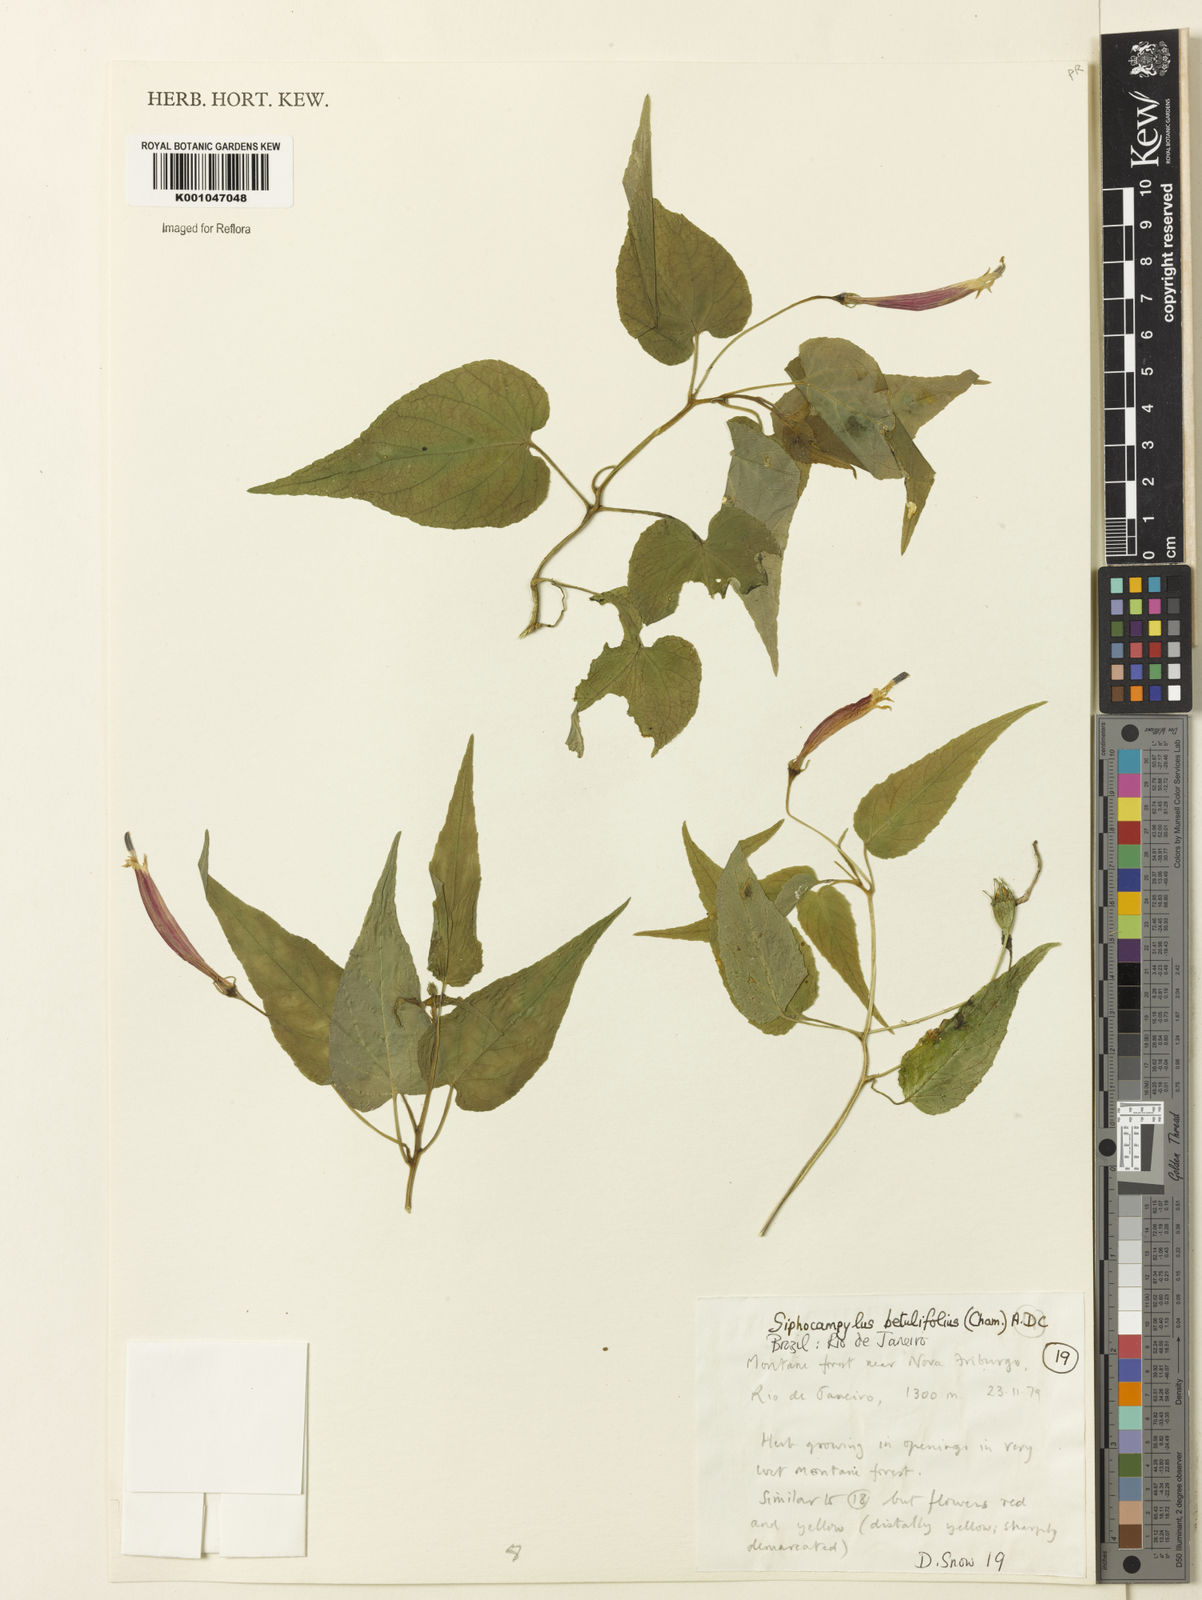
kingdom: Plantae
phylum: Tracheophyta
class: Magnoliopsida
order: Asterales
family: Campanulaceae
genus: Siphocampylus
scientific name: Siphocampylus betulifolius
